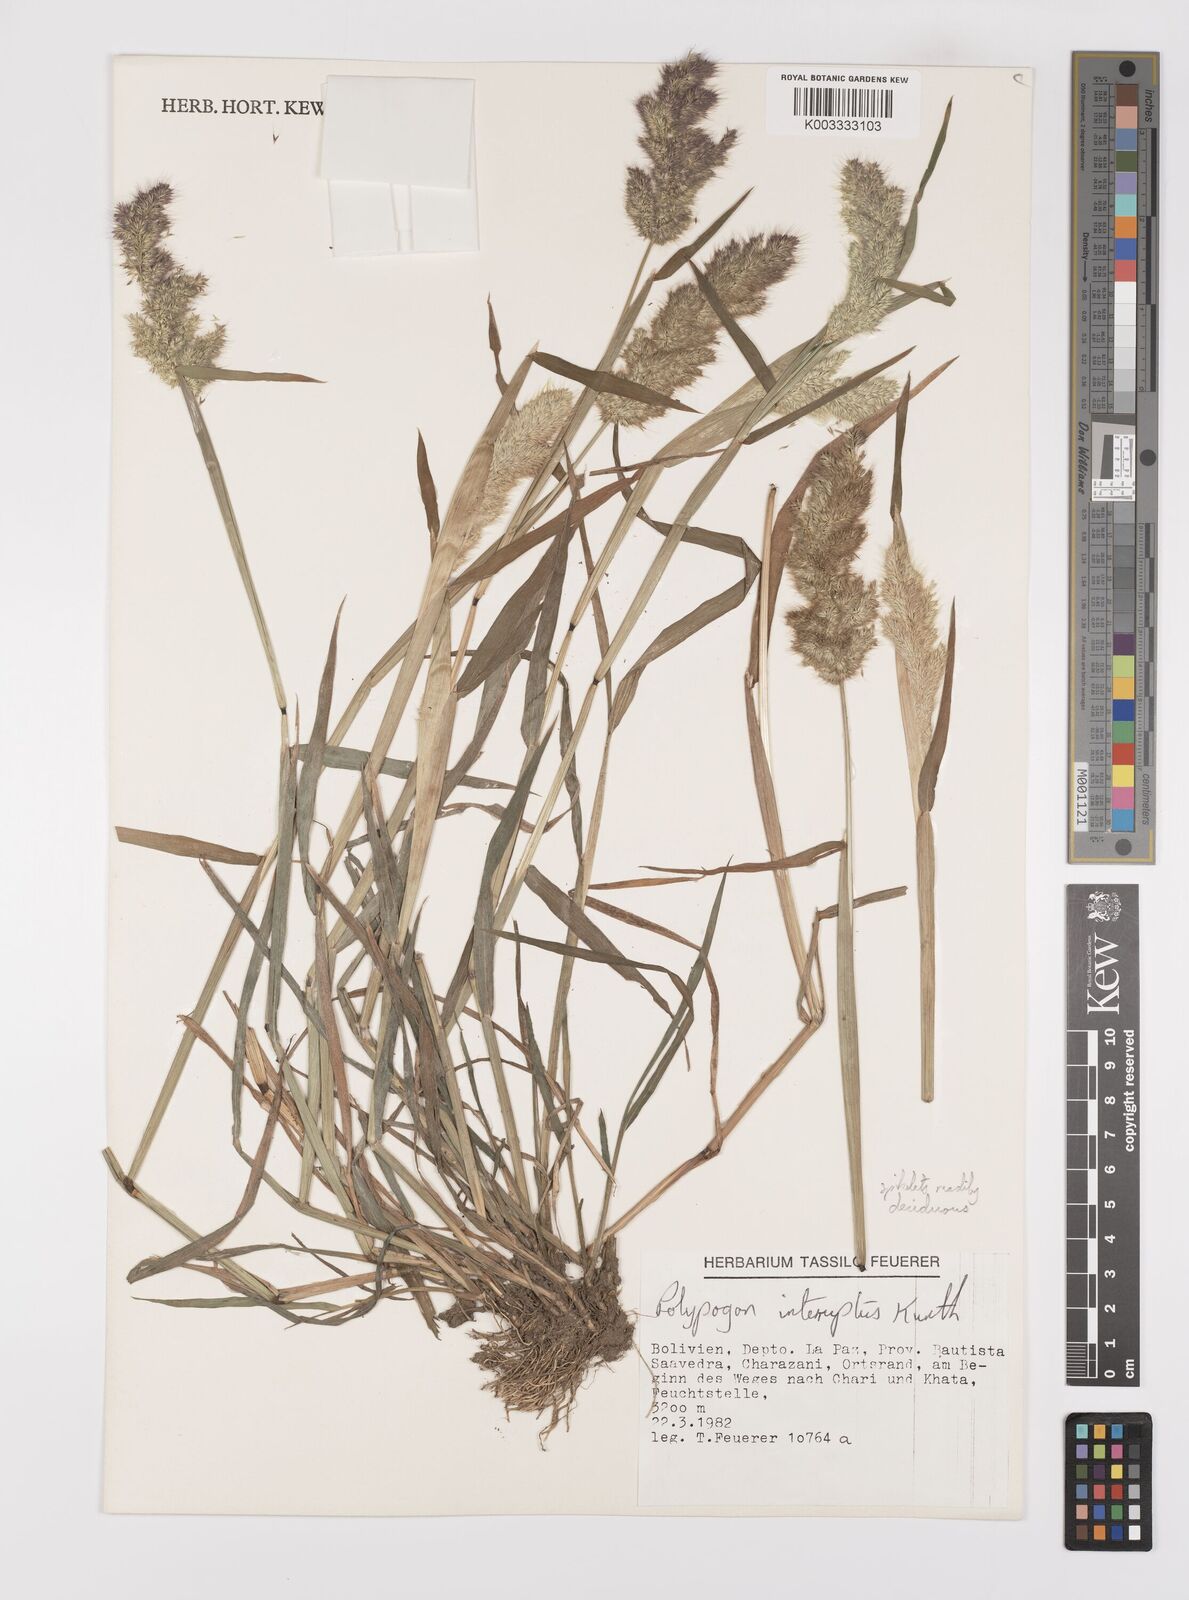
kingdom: Plantae
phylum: Tracheophyta
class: Liliopsida
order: Poales
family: Poaceae
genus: Polypogon
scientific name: Polypogon interruptus
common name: Ditch polypogon
